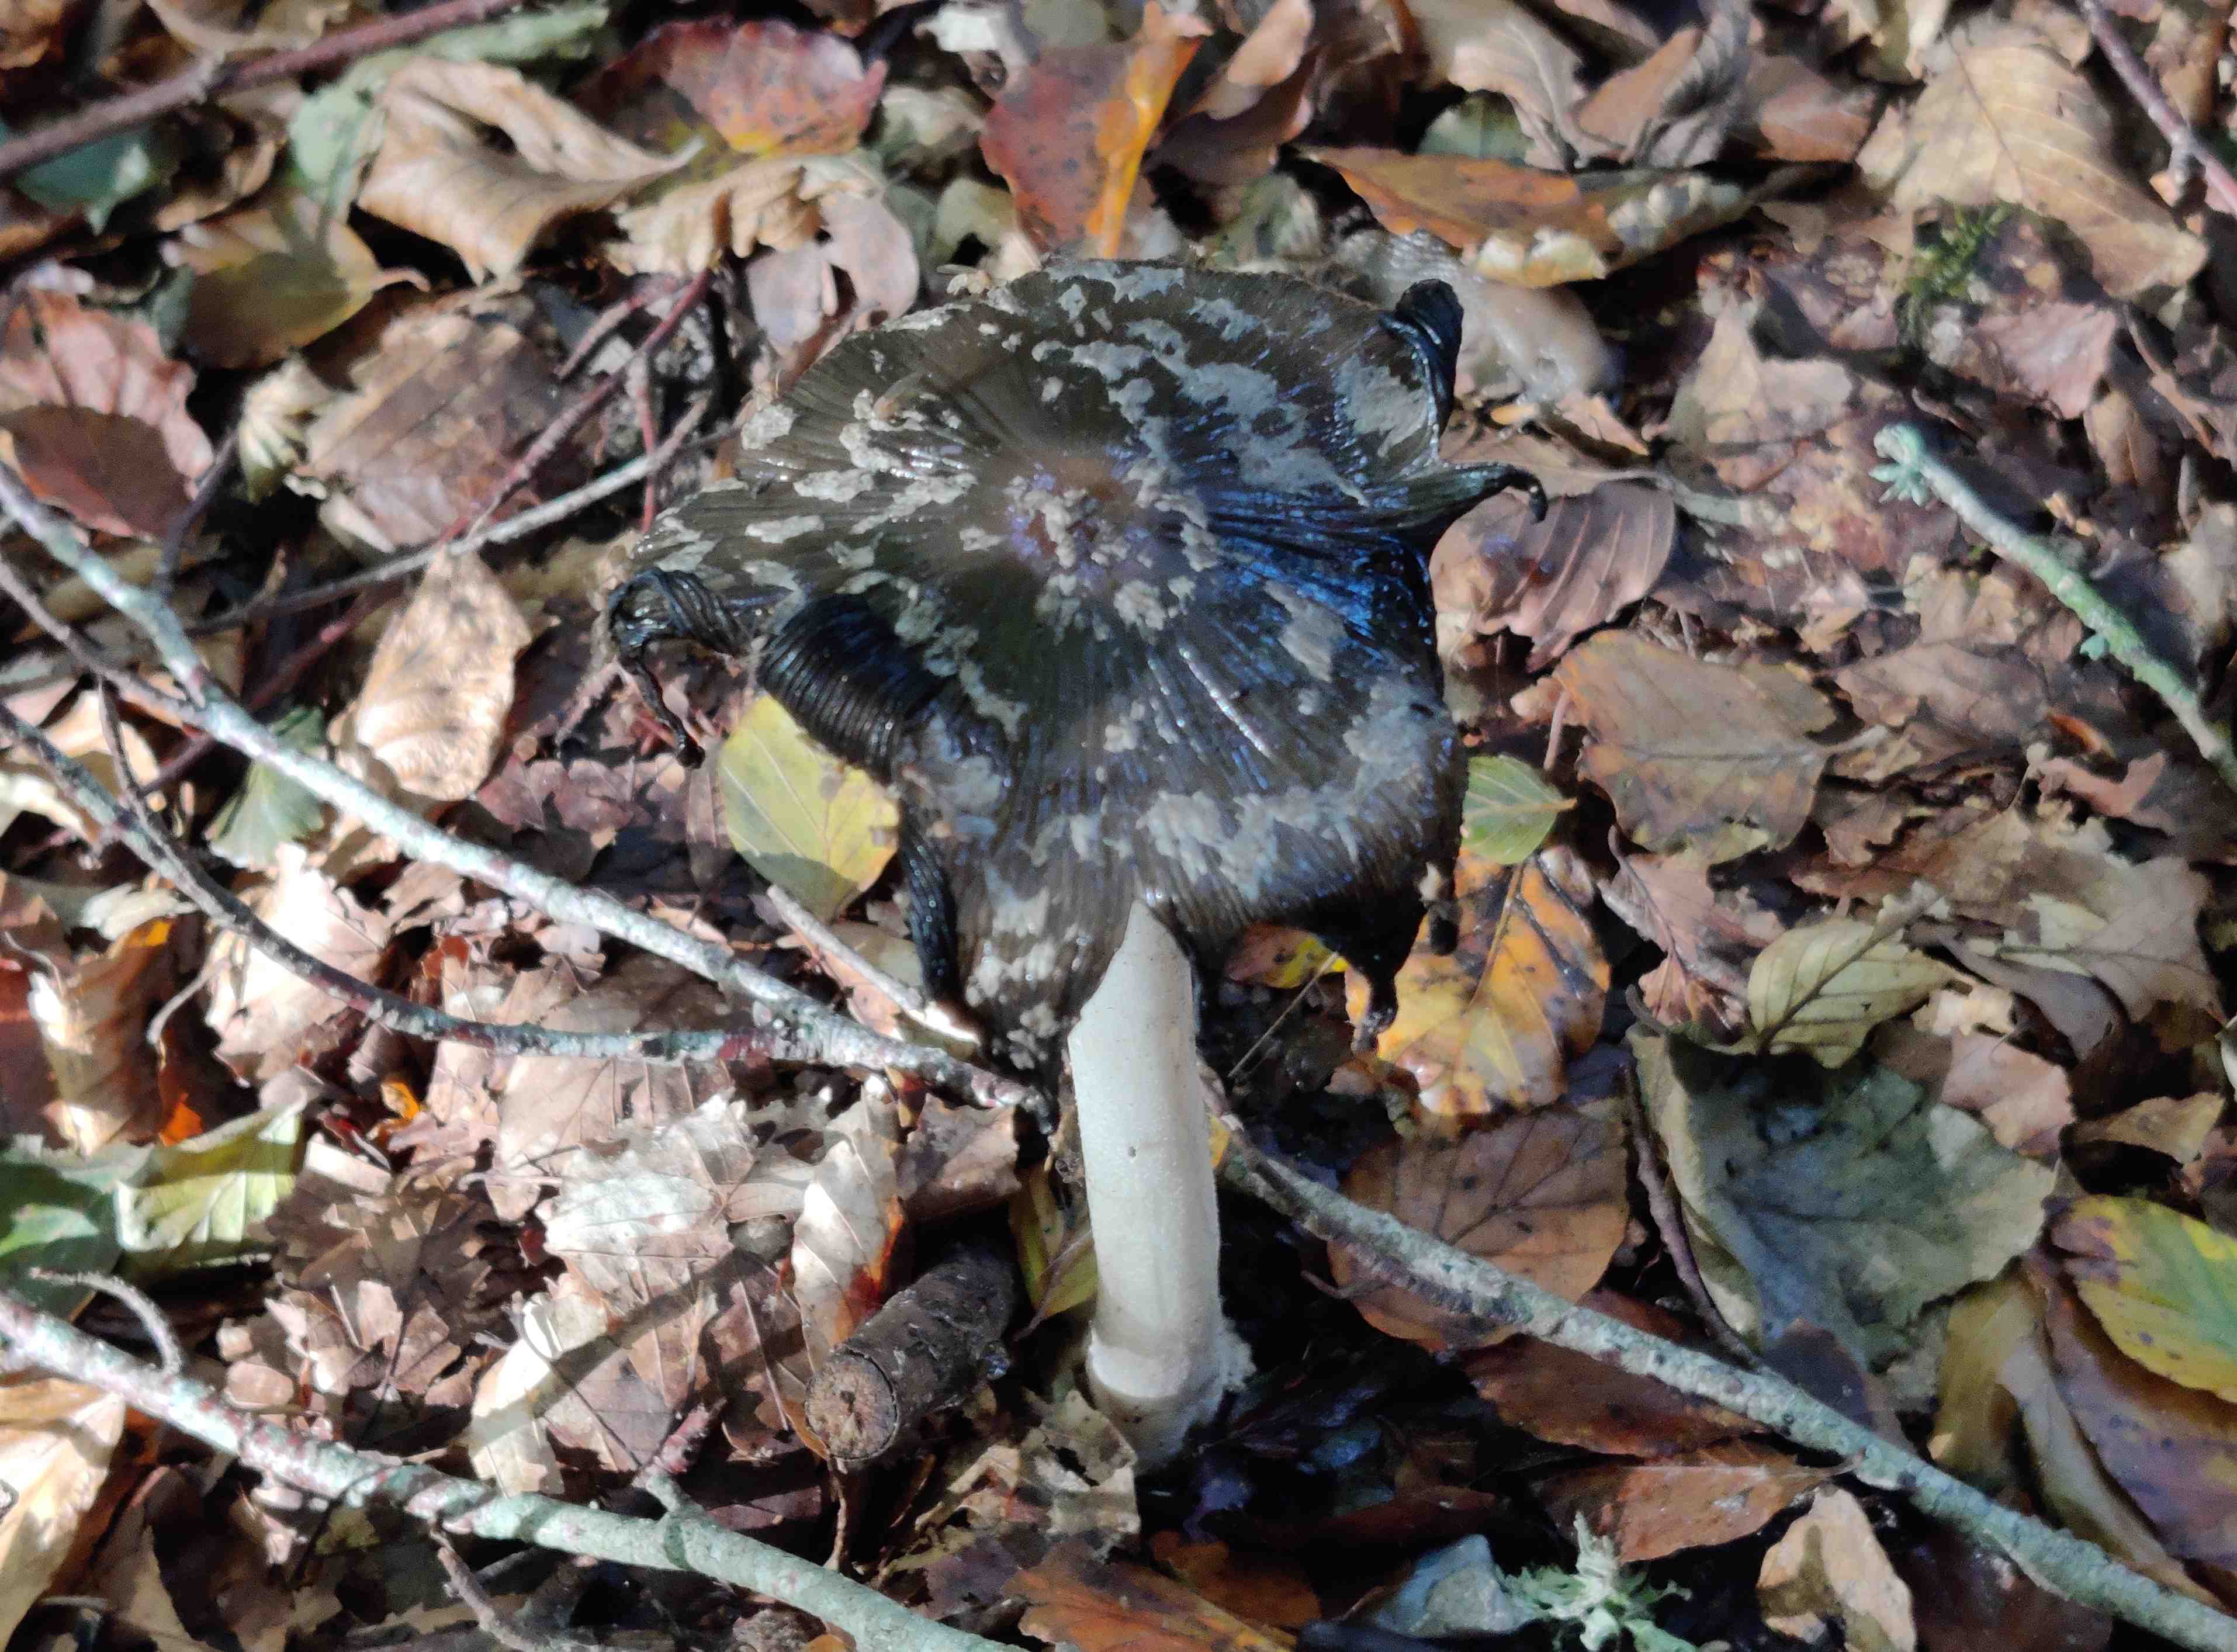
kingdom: Fungi
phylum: Basidiomycota
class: Agaricomycetes
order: Agaricales
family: Psathyrellaceae
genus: Coprinopsis
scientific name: Coprinopsis picacea
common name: skade-blækhat
